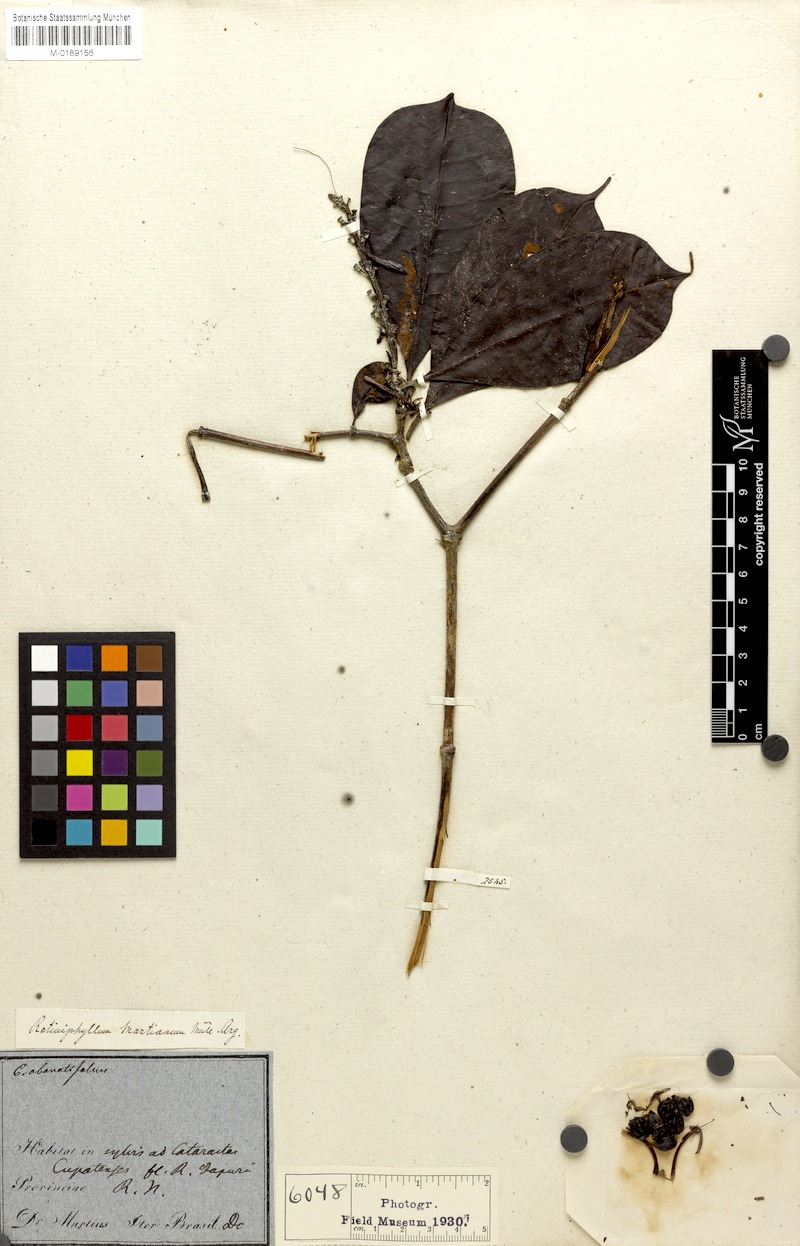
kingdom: Plantae
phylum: Tracheophyta
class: Magnoliopsida
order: Gentianales
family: Rubiaceae
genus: Retiniphyllum
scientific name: Retiniphyllum concolor
